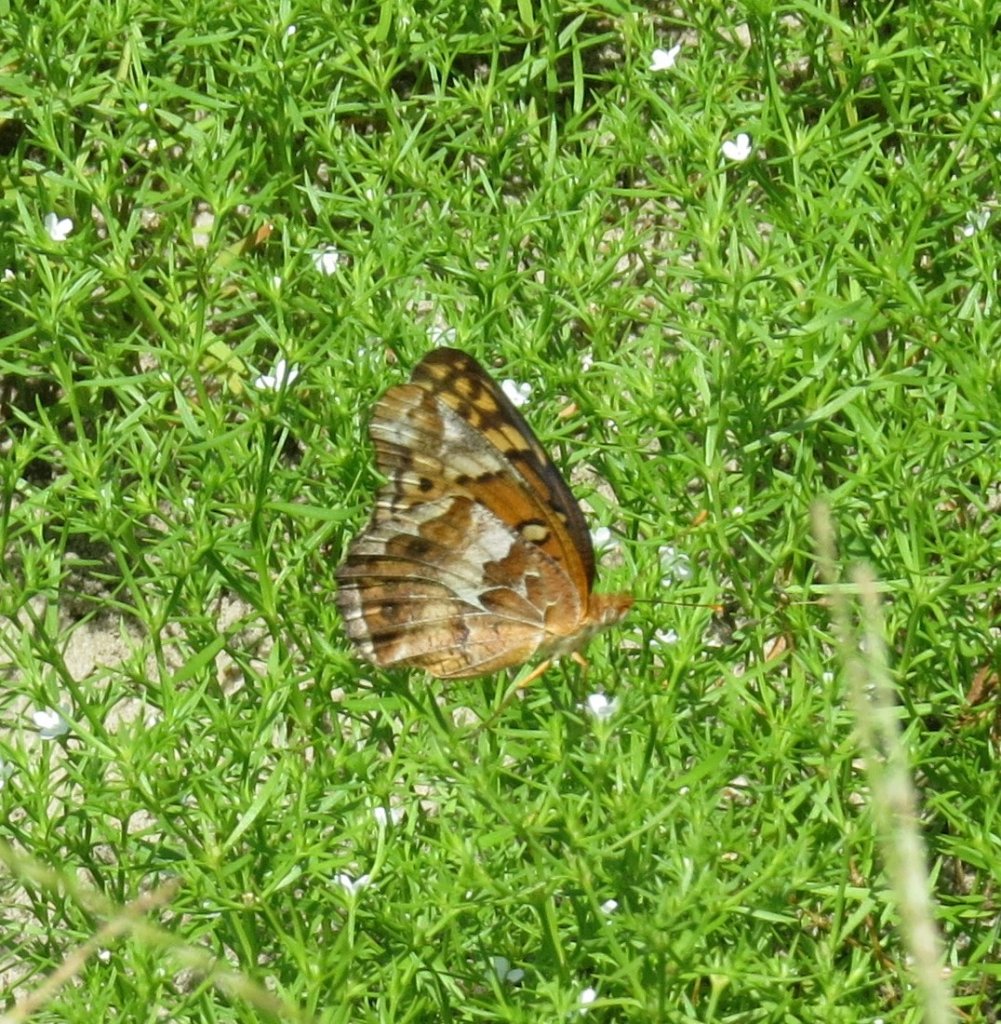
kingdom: Animalia
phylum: Arthropoda
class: Insecta
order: Lepidoptera
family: Nymphalidae
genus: Euptoieta
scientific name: Euptoieta claudia
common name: Variegated Fritillary
